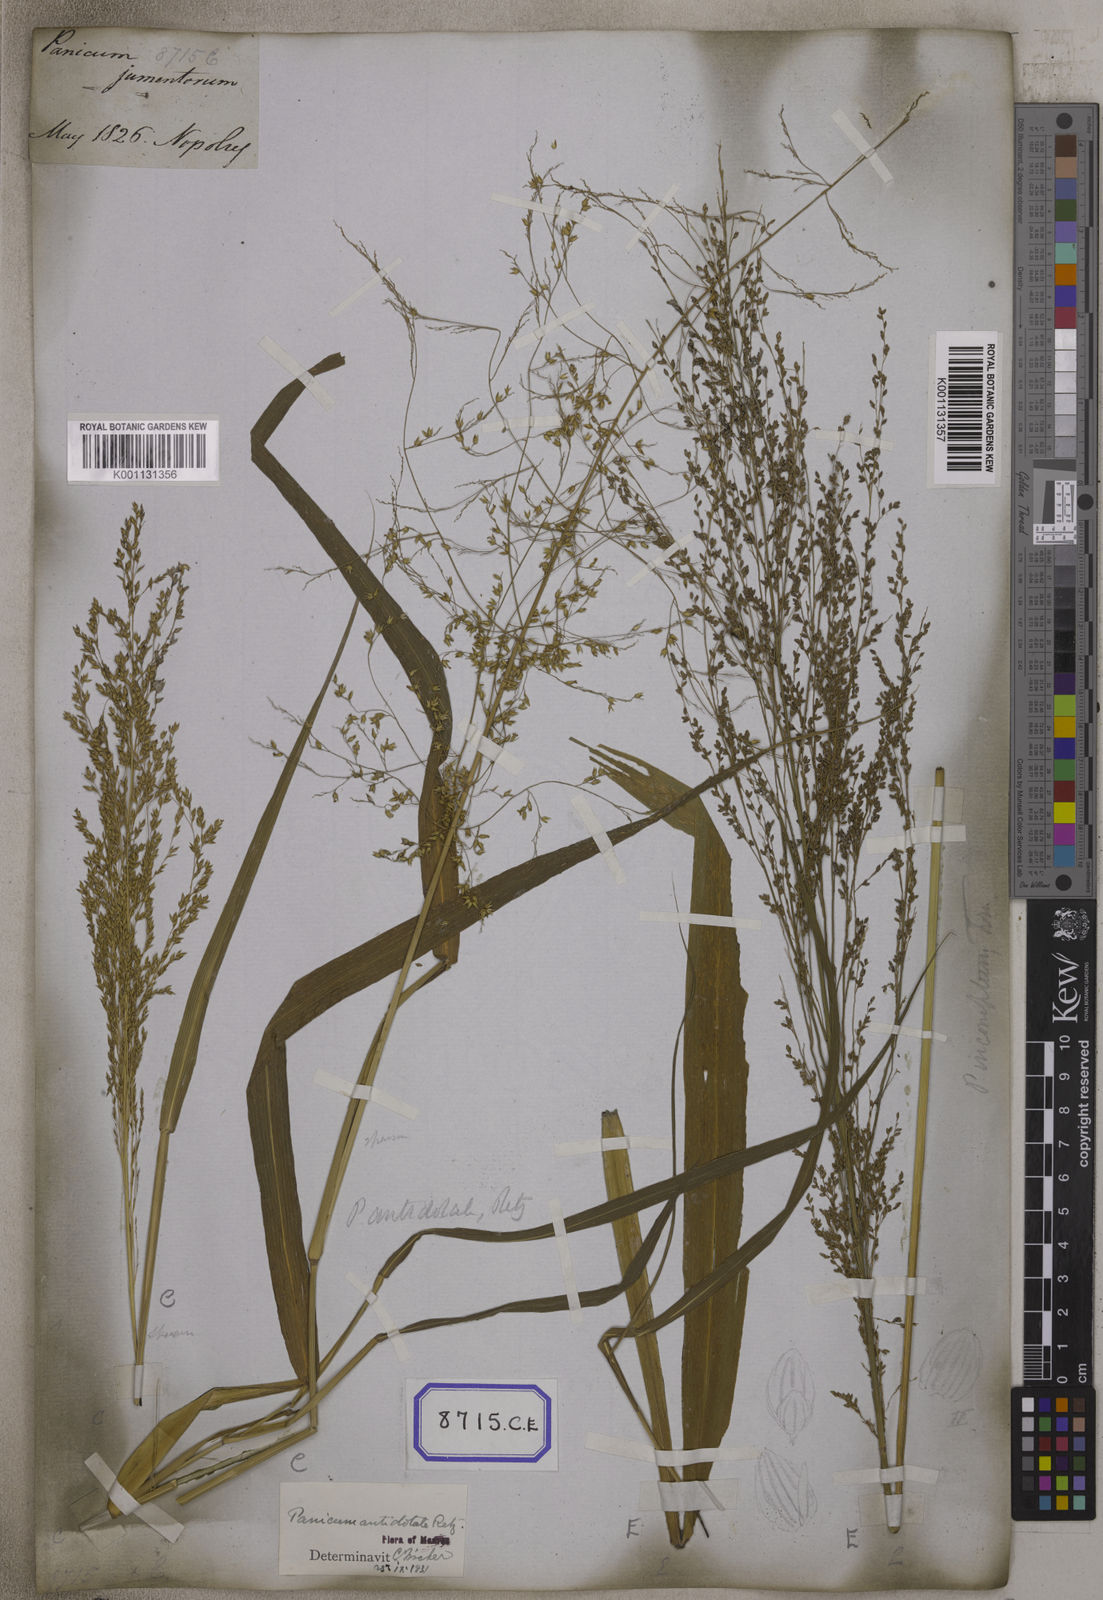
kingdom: Plantae
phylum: Tracheophyta
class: Liliopsida
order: Poales
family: Poaceae
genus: Megathyrsus
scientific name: Megathyrsus maximus
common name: Guineagrass
